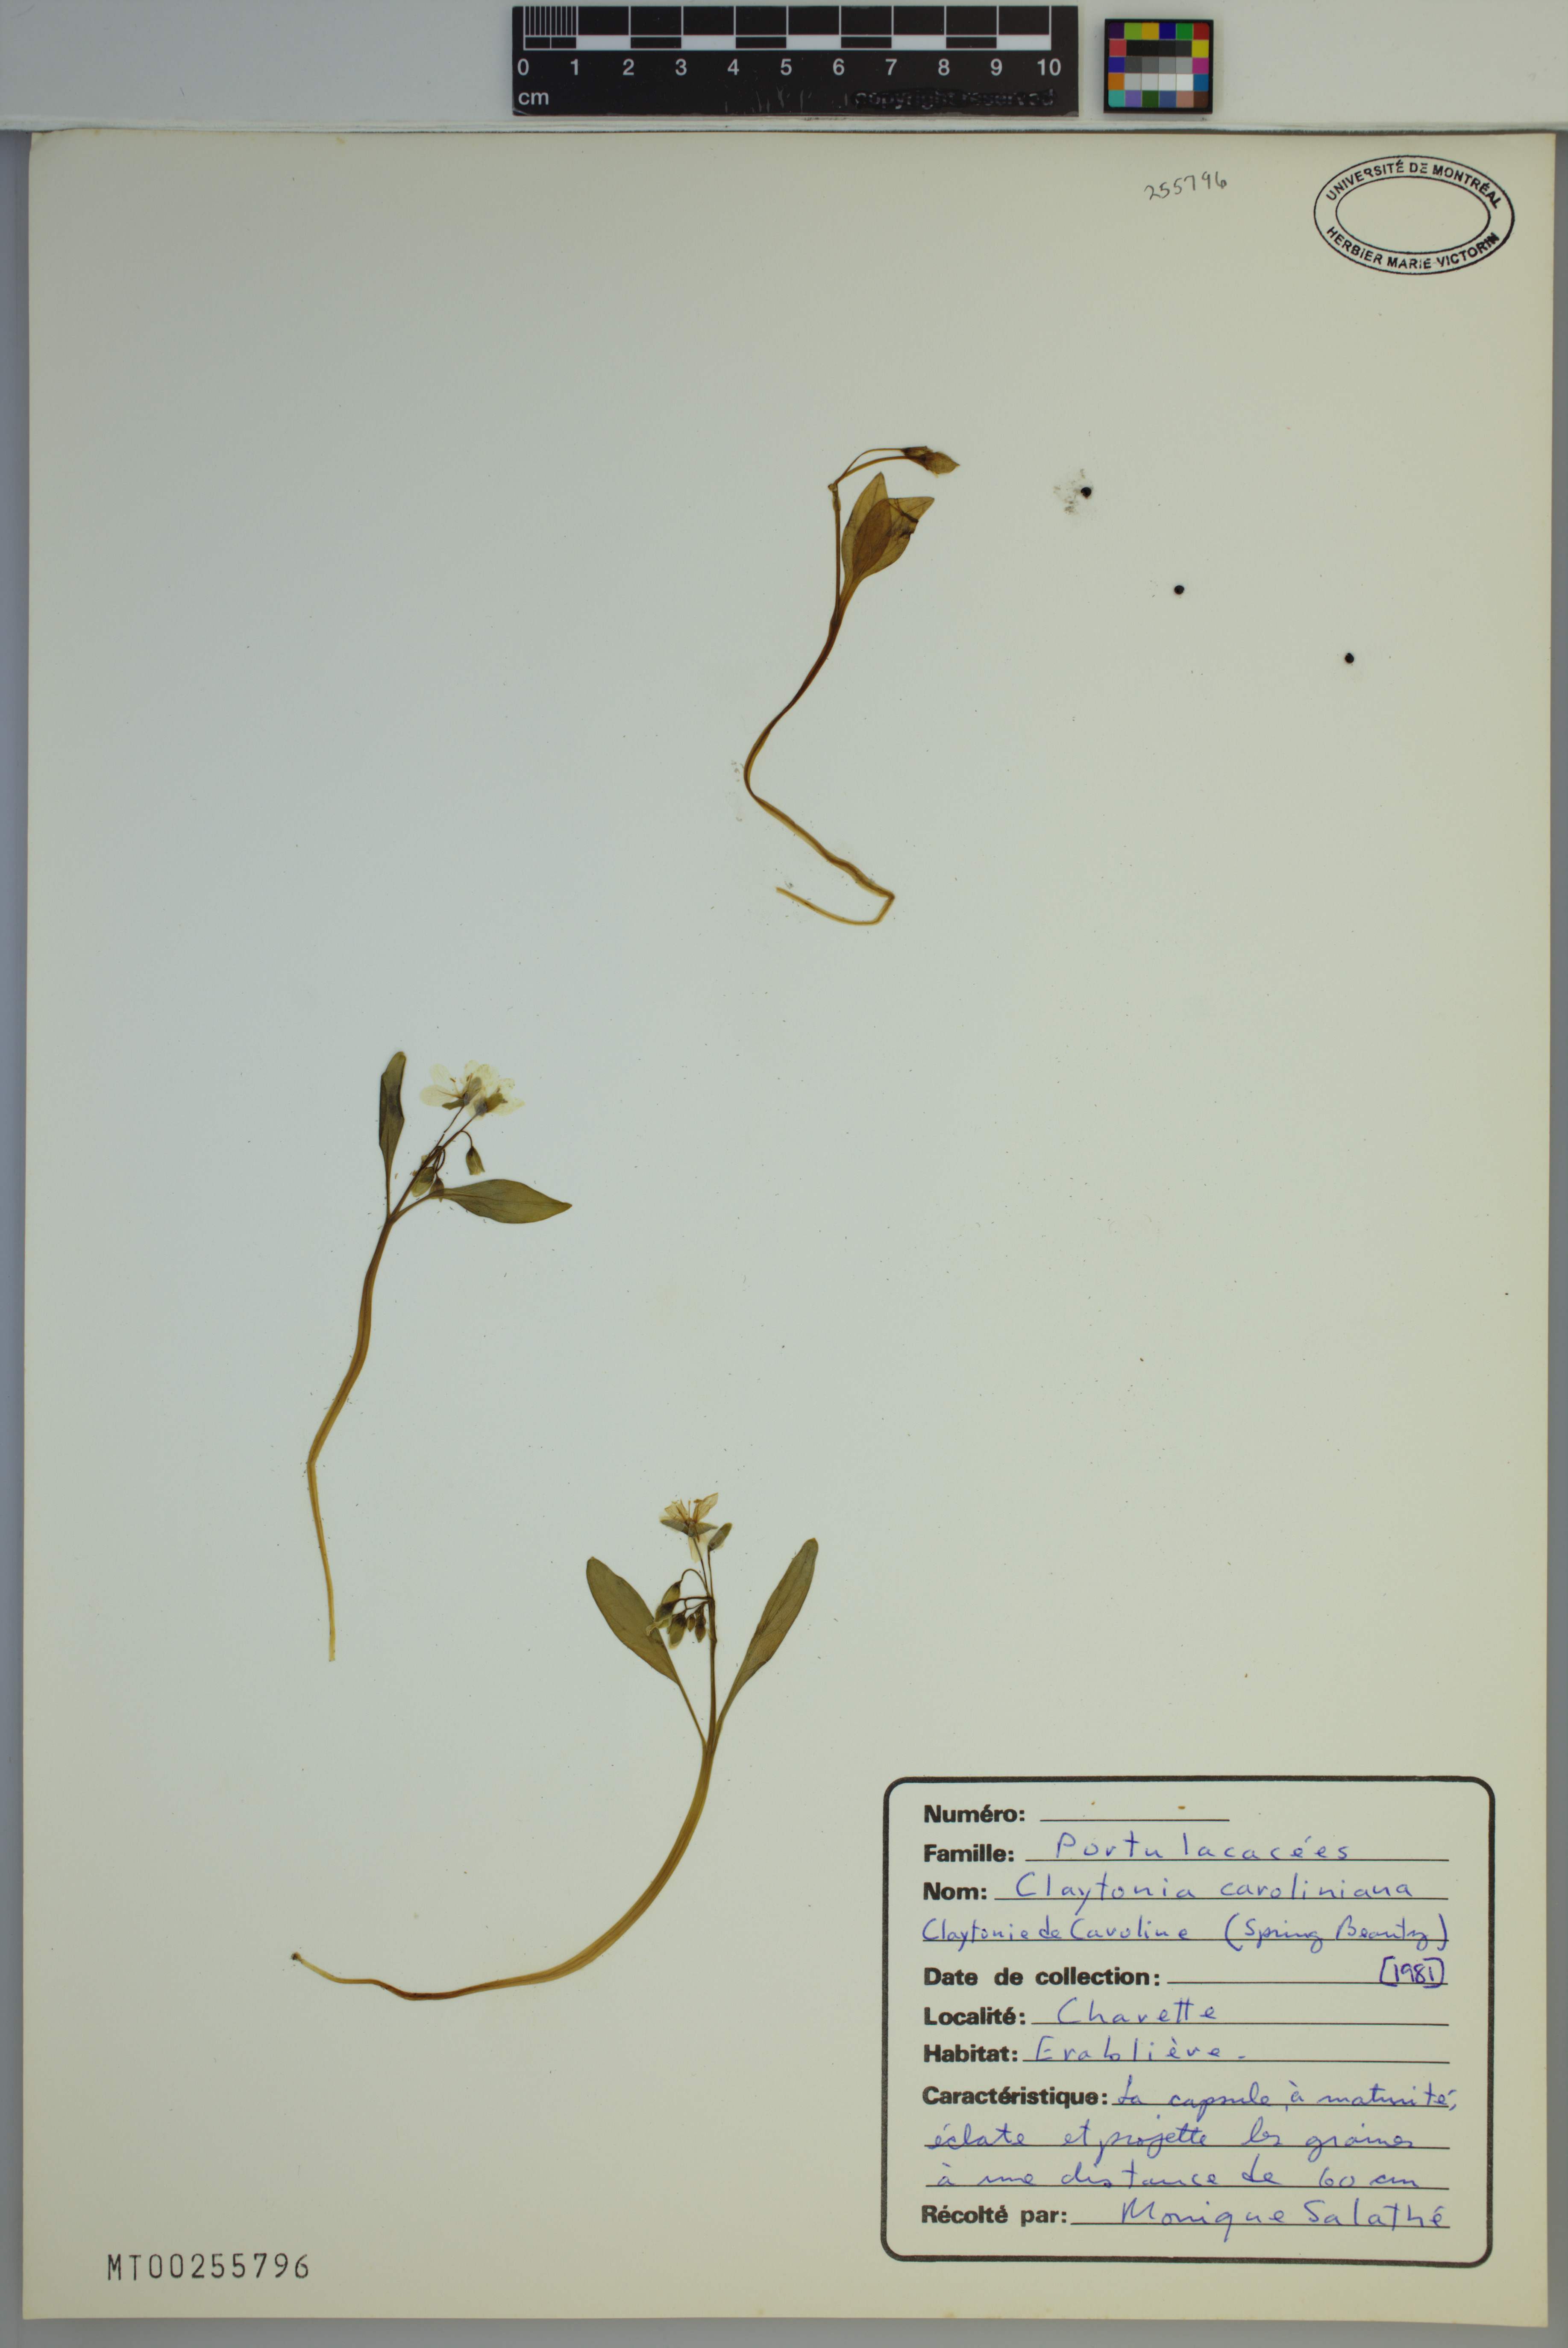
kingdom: Plantae
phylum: Tracheophyta
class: Magnoliopsida
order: Caryophyllales
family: Montiaceae
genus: Claytonia
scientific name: Claytonia caroliniana
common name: Carolina spring beauty
